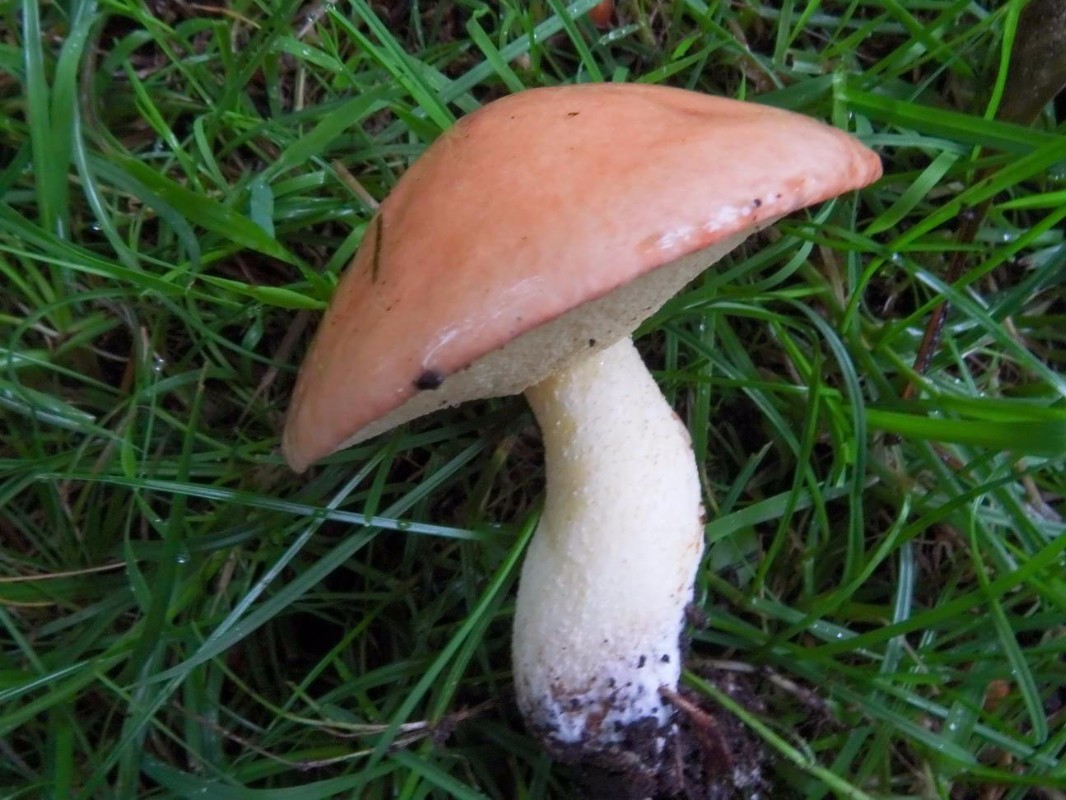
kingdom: Fungi
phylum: Basidiomycota
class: Agaricomycetes
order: Boletales
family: Suillaceae
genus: Suillus
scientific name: Suillus granulatus
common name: kornet slimrørhat
